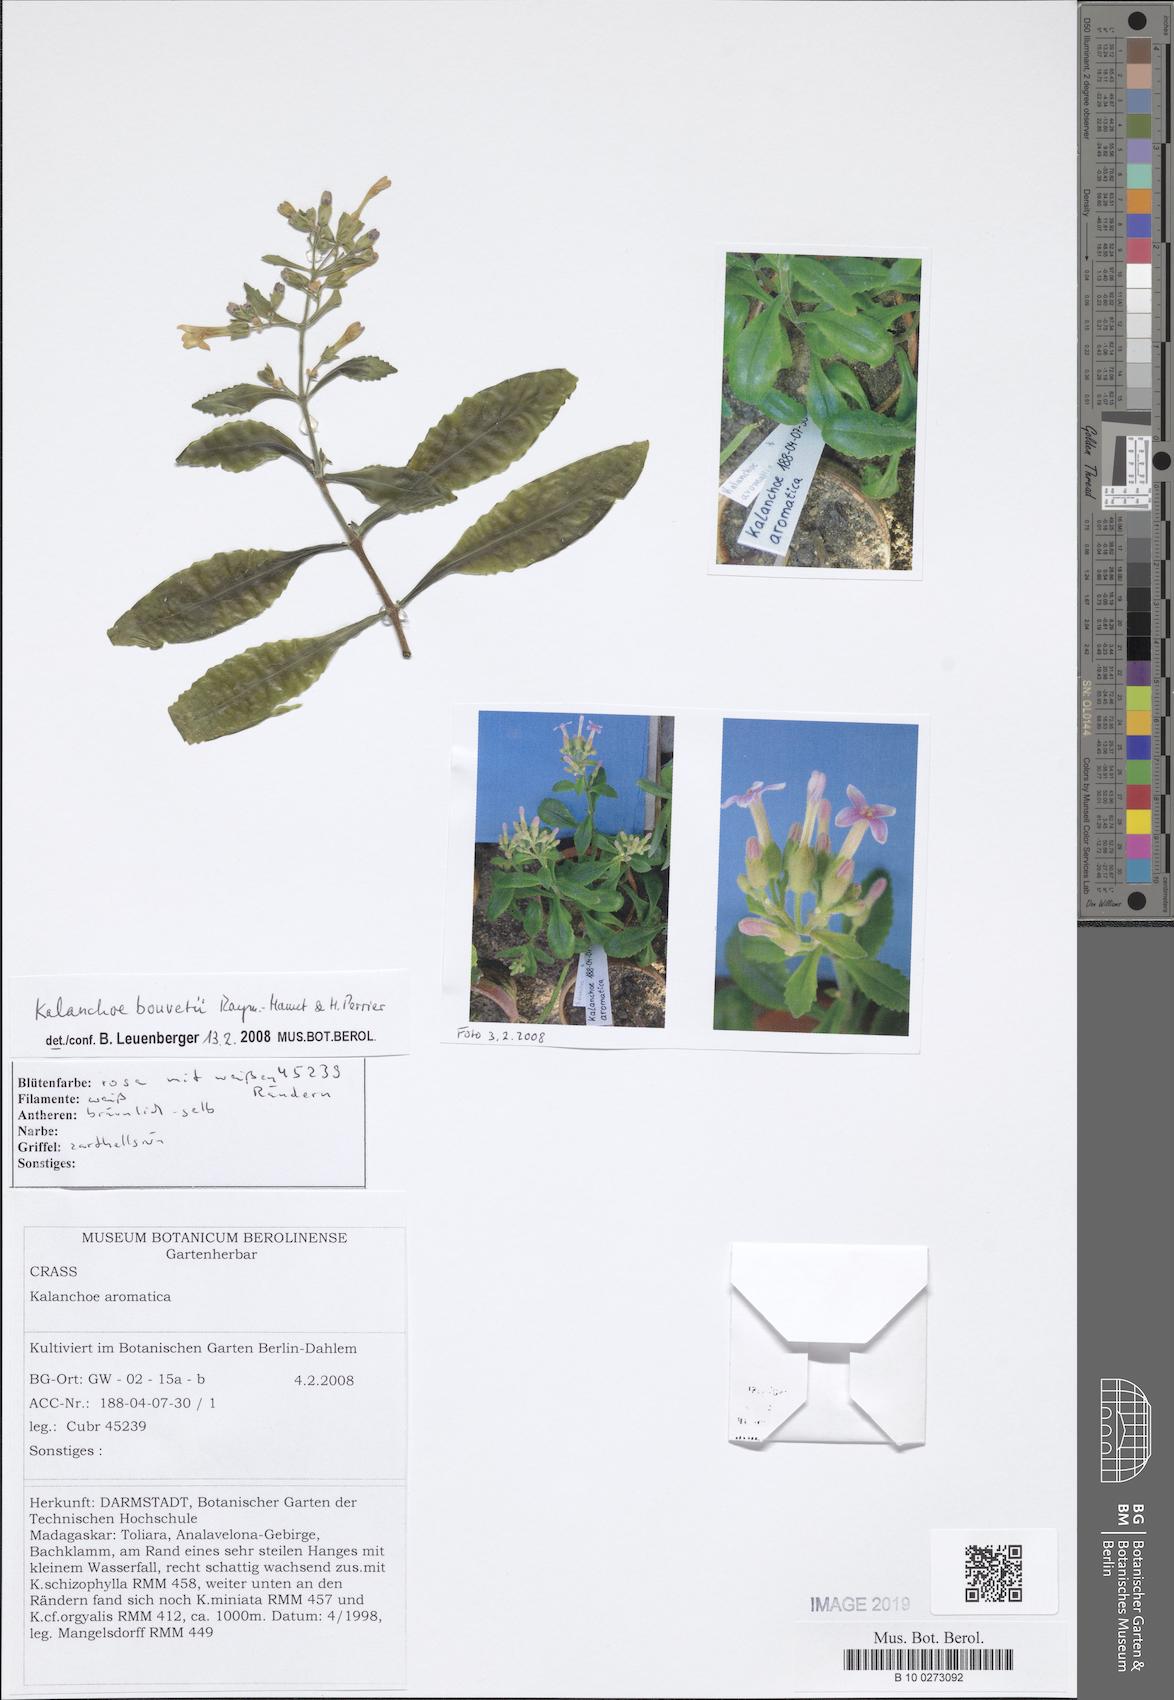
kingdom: Plantae
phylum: Tracheophyta
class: Magnoliopsida
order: Saxifragales
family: Crassulaceae
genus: Kalanchoe
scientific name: Kalanchoe bouvetii
